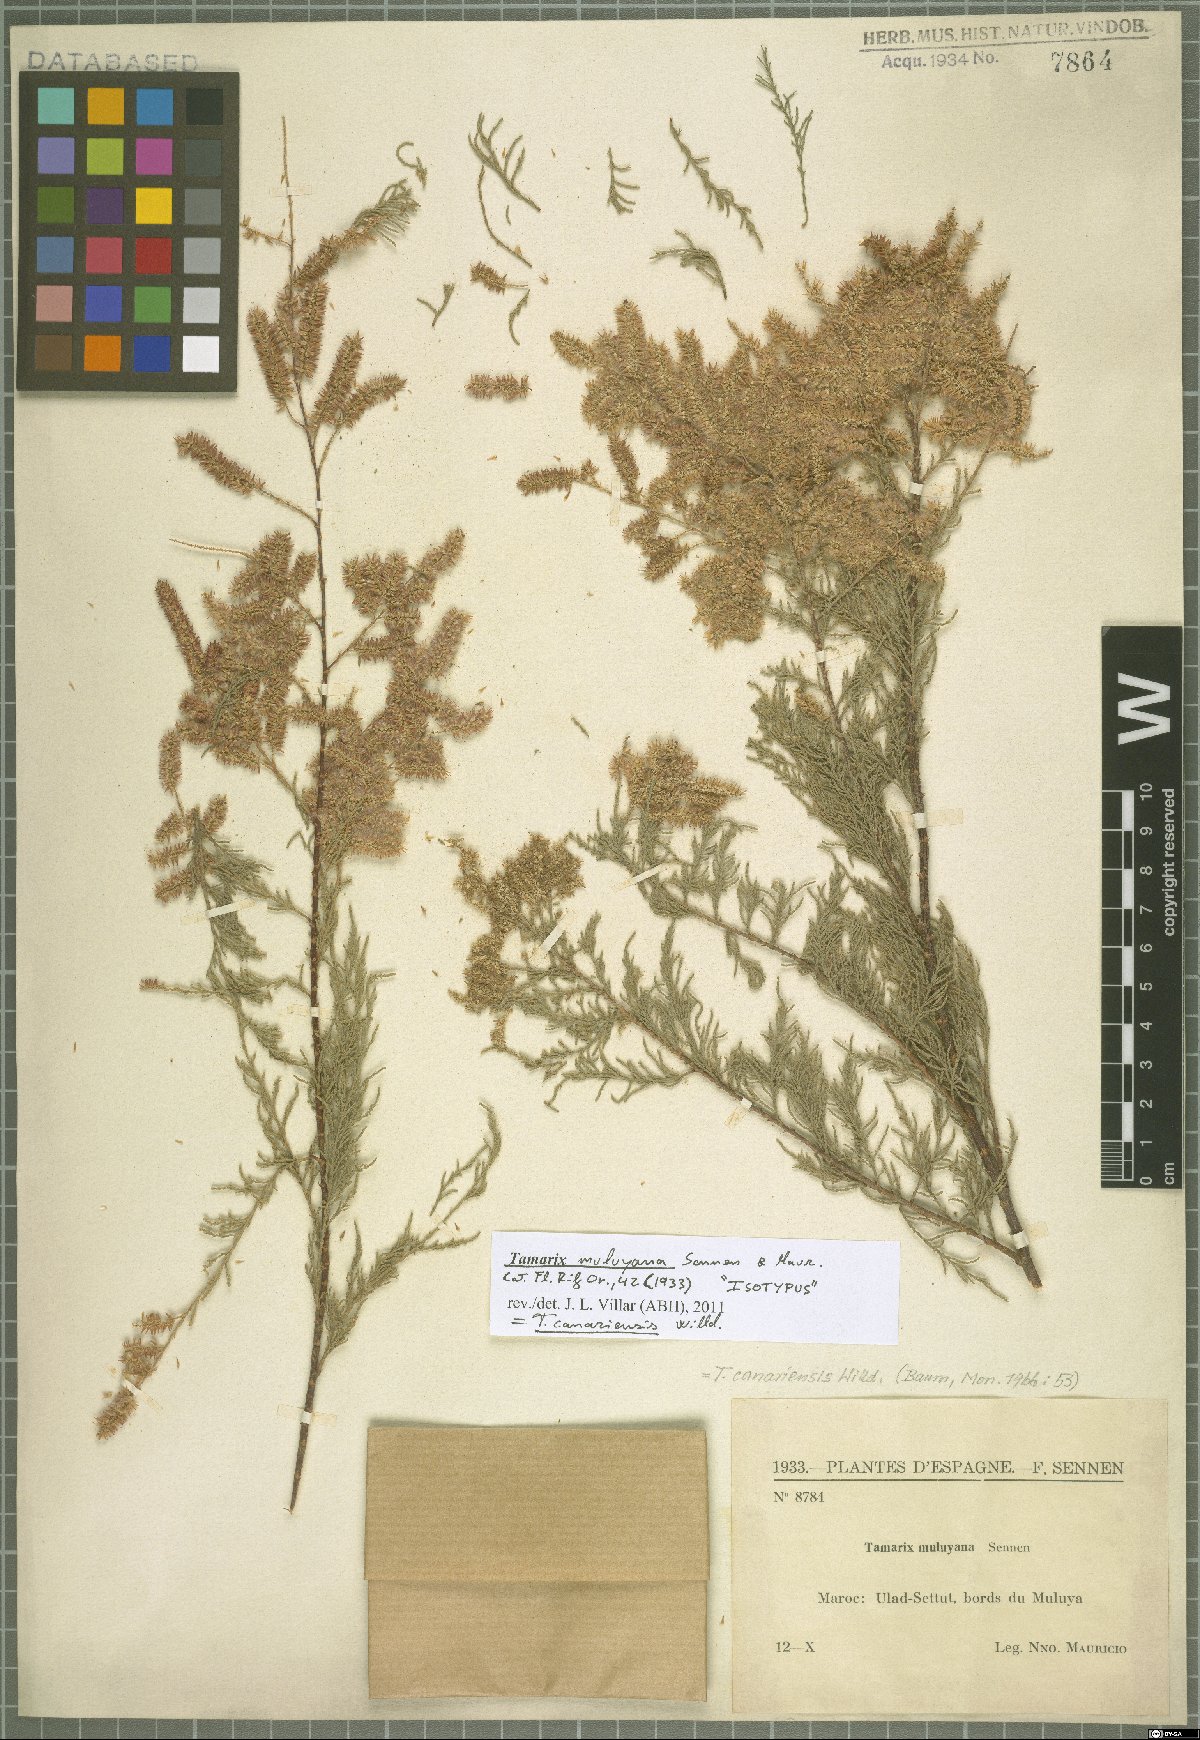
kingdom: Plantae
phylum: Tracheophyta
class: Magnoliopsida
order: Caryophyllales
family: Tamaricaceae
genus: Tamarix
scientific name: Tamarix canariensis
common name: Canary island tamarisk
